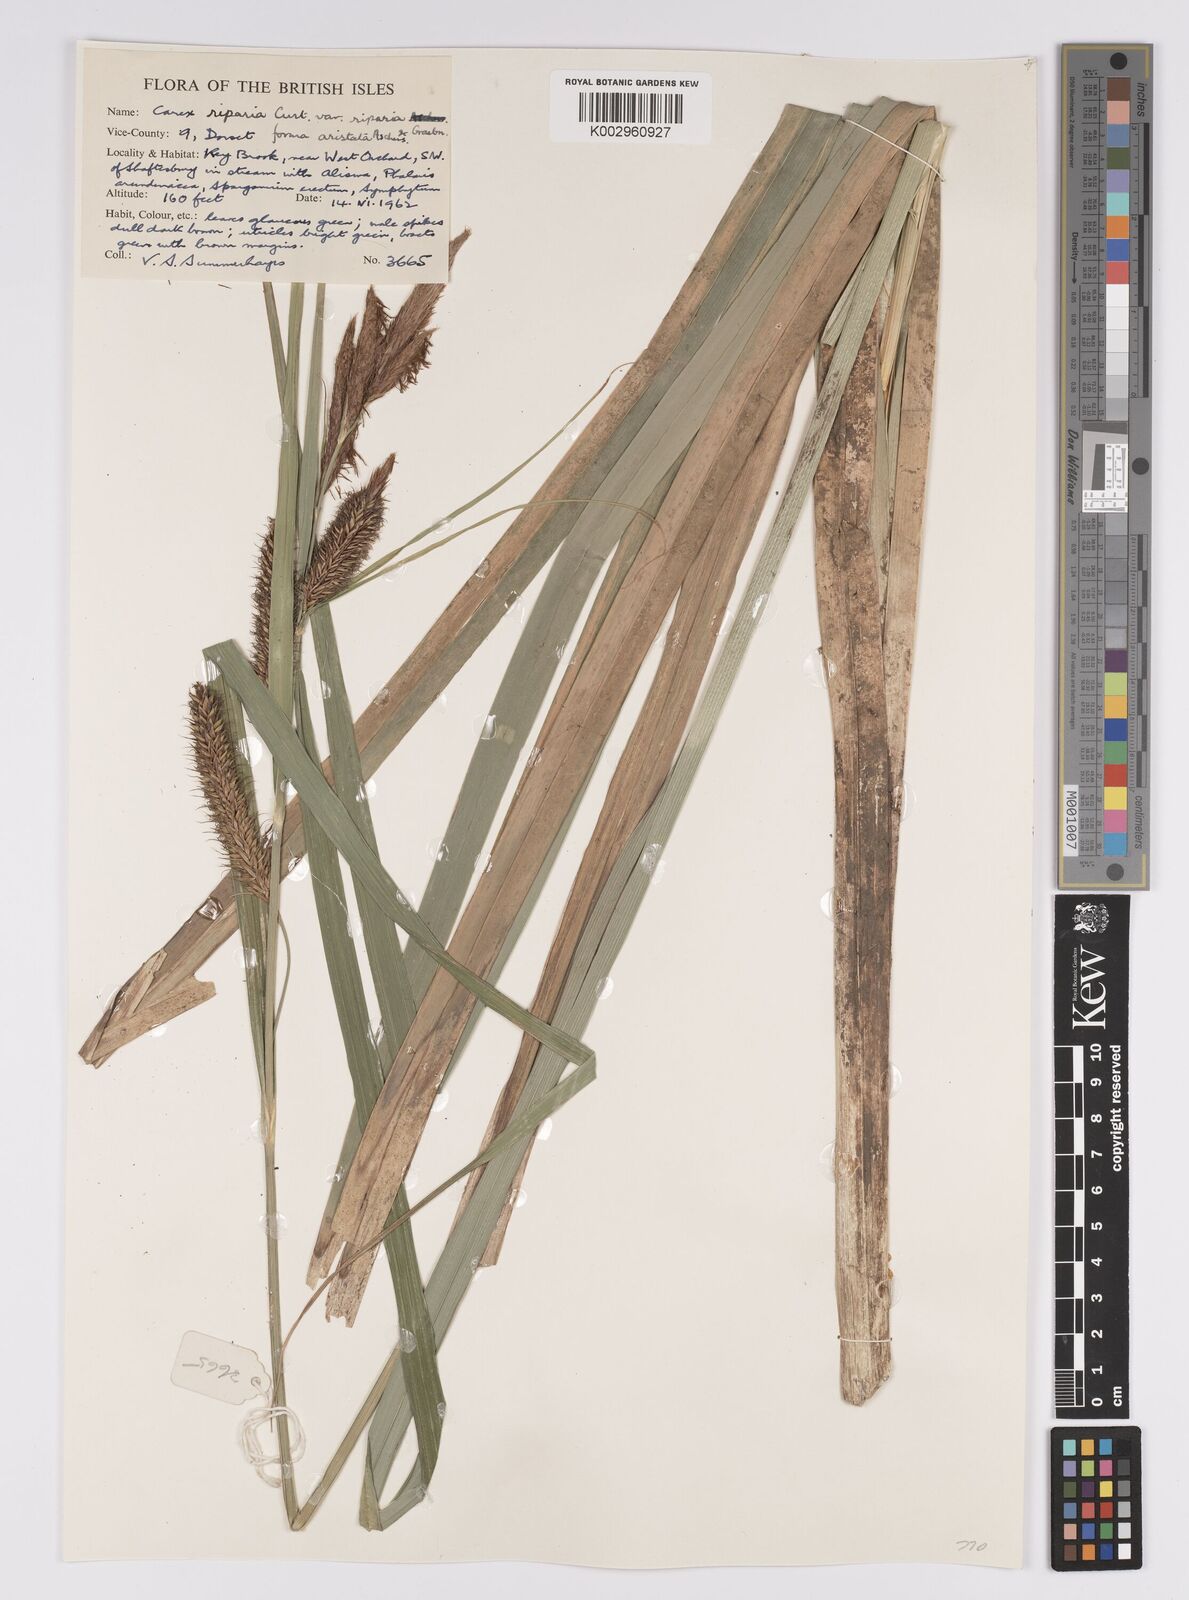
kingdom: Plantae
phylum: Tracheophyta
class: Liliopsida
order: Poales
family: Cyperaceae
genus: Carex
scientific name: Carex riparia
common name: Greater pond-sedge
